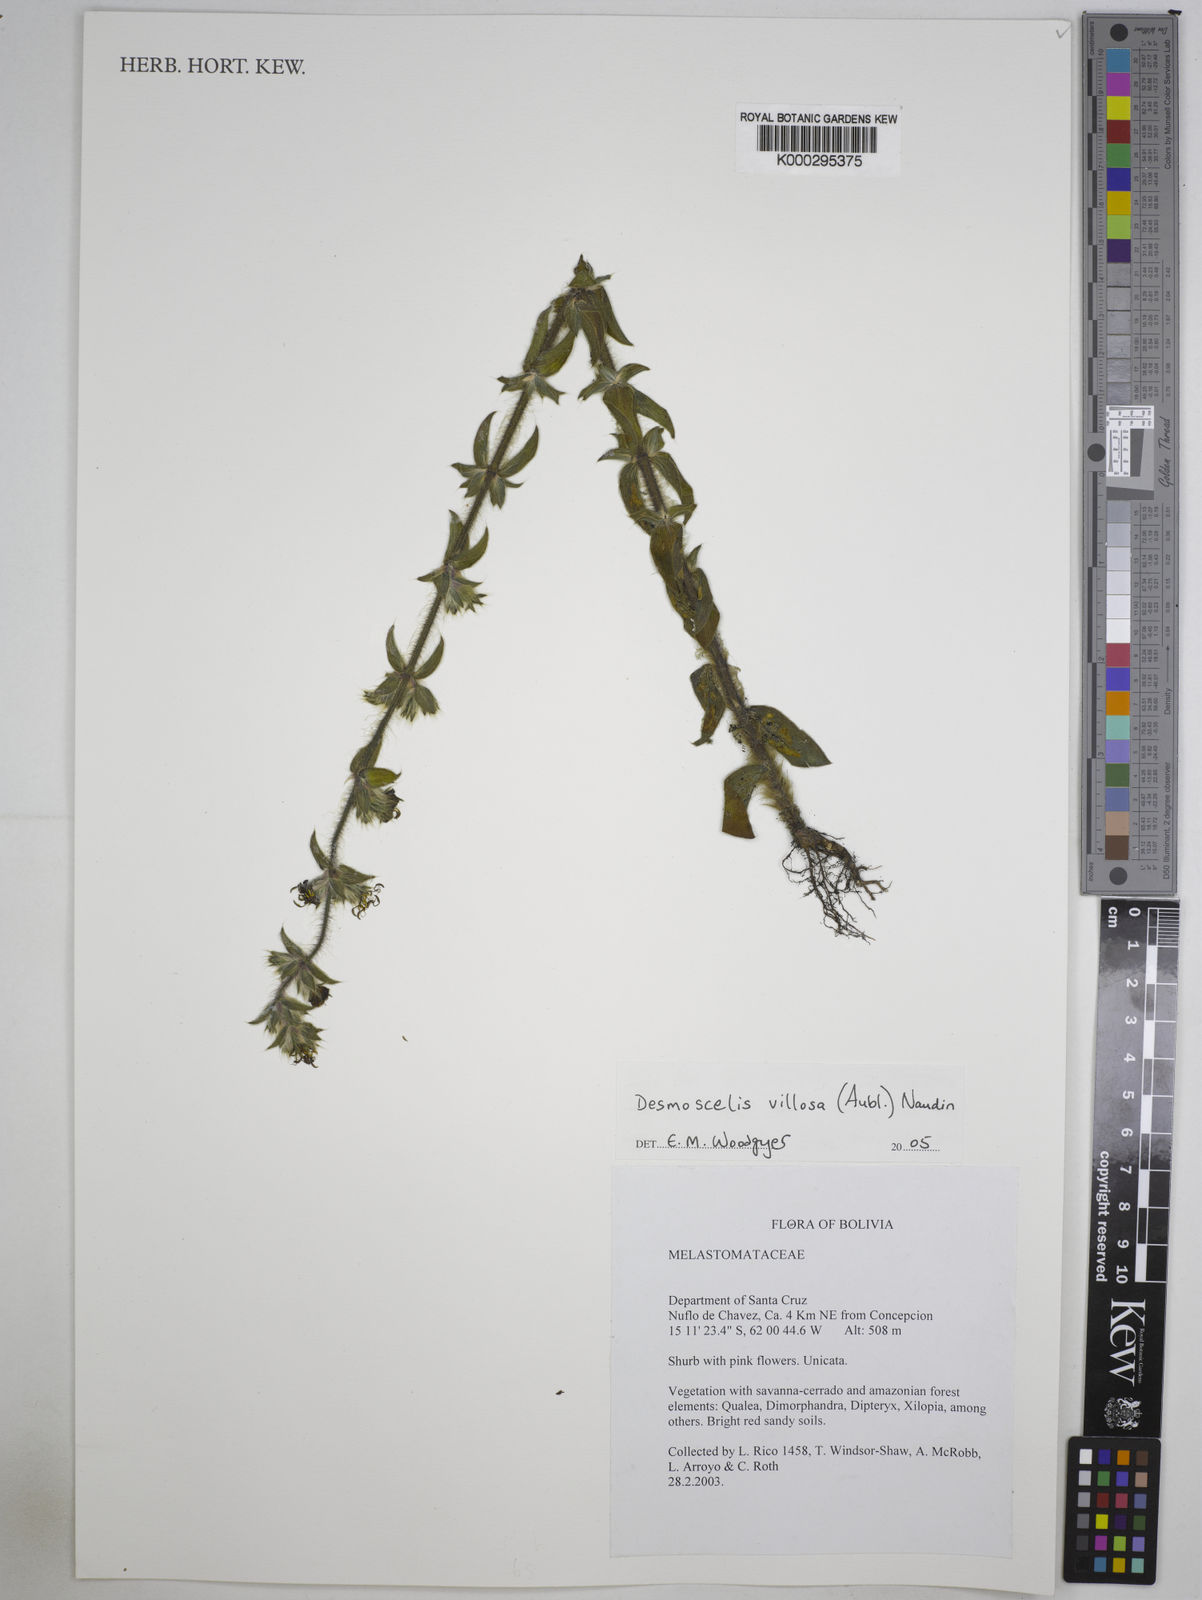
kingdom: Plantae
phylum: Tracheophyta
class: Magnoliopsida
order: Myrtales
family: Melastomataceae
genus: Desmoscelis
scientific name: Desmoscelis villosa
